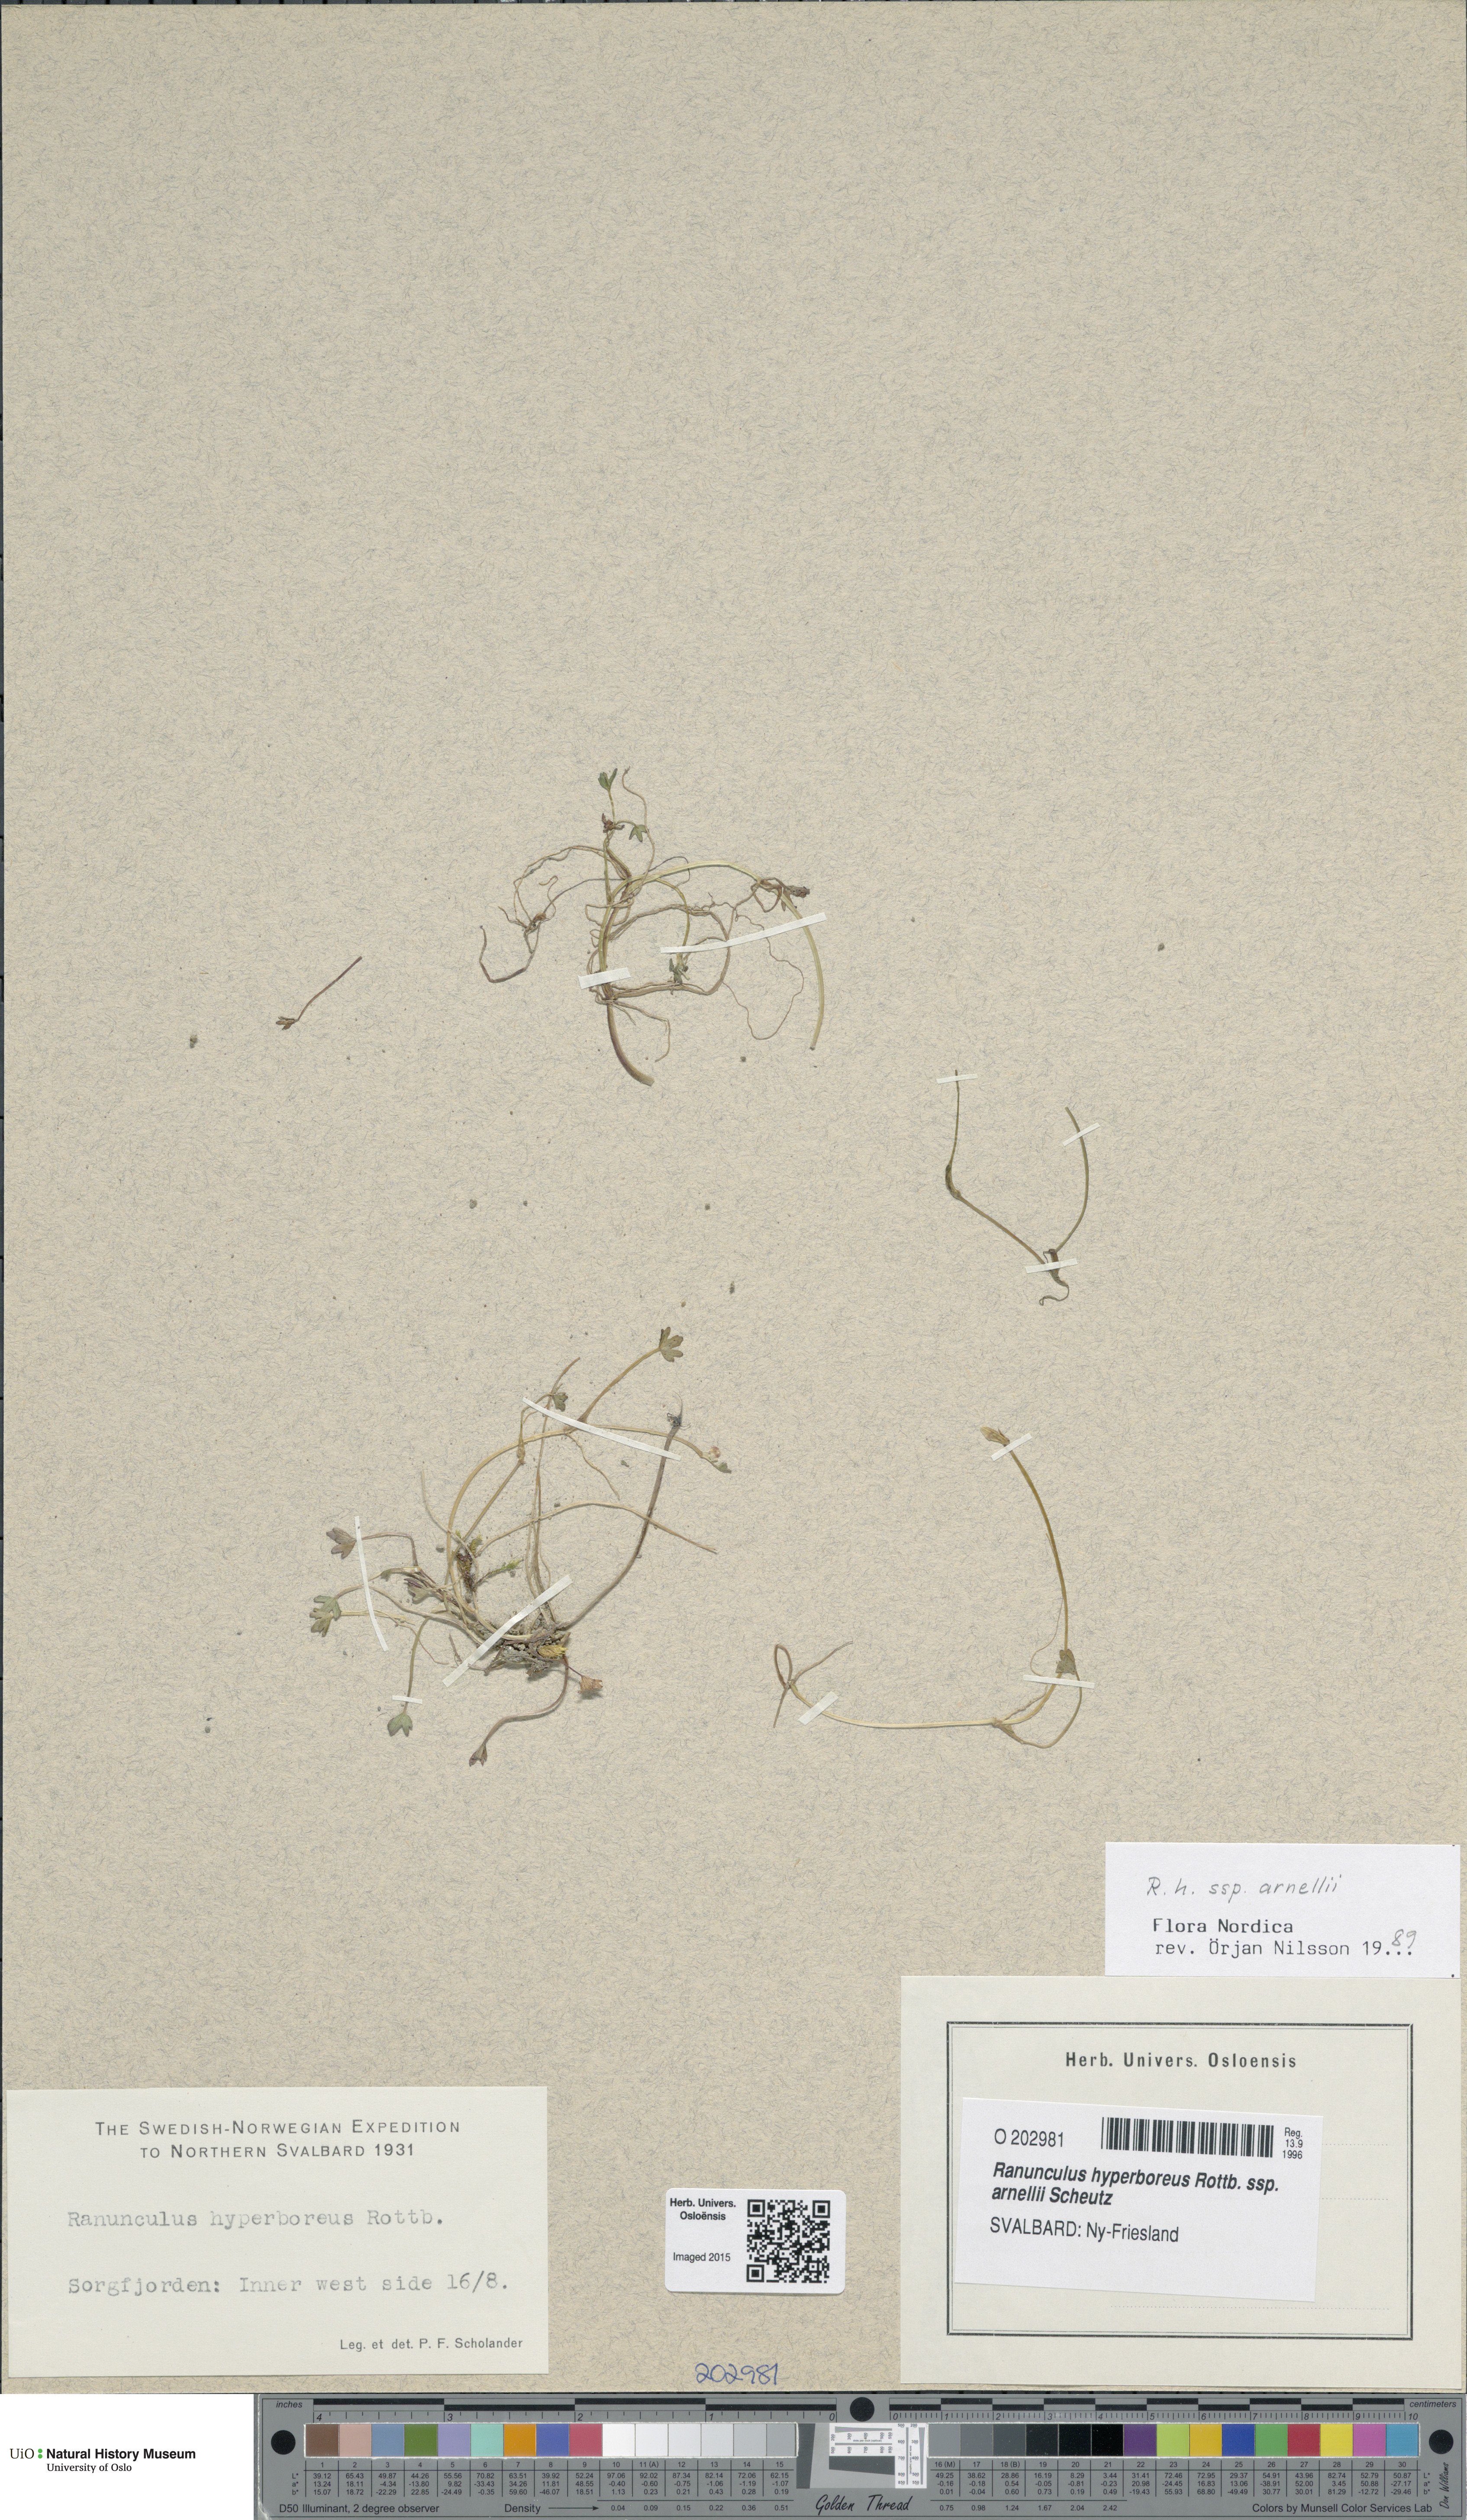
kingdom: Plantae
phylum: Tracheophyta
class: Magnoliopsida
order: Ranunculales
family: Ranunculaceae
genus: Ranunculus
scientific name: Ranunculus hyperboreus
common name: Arctic buttercup
